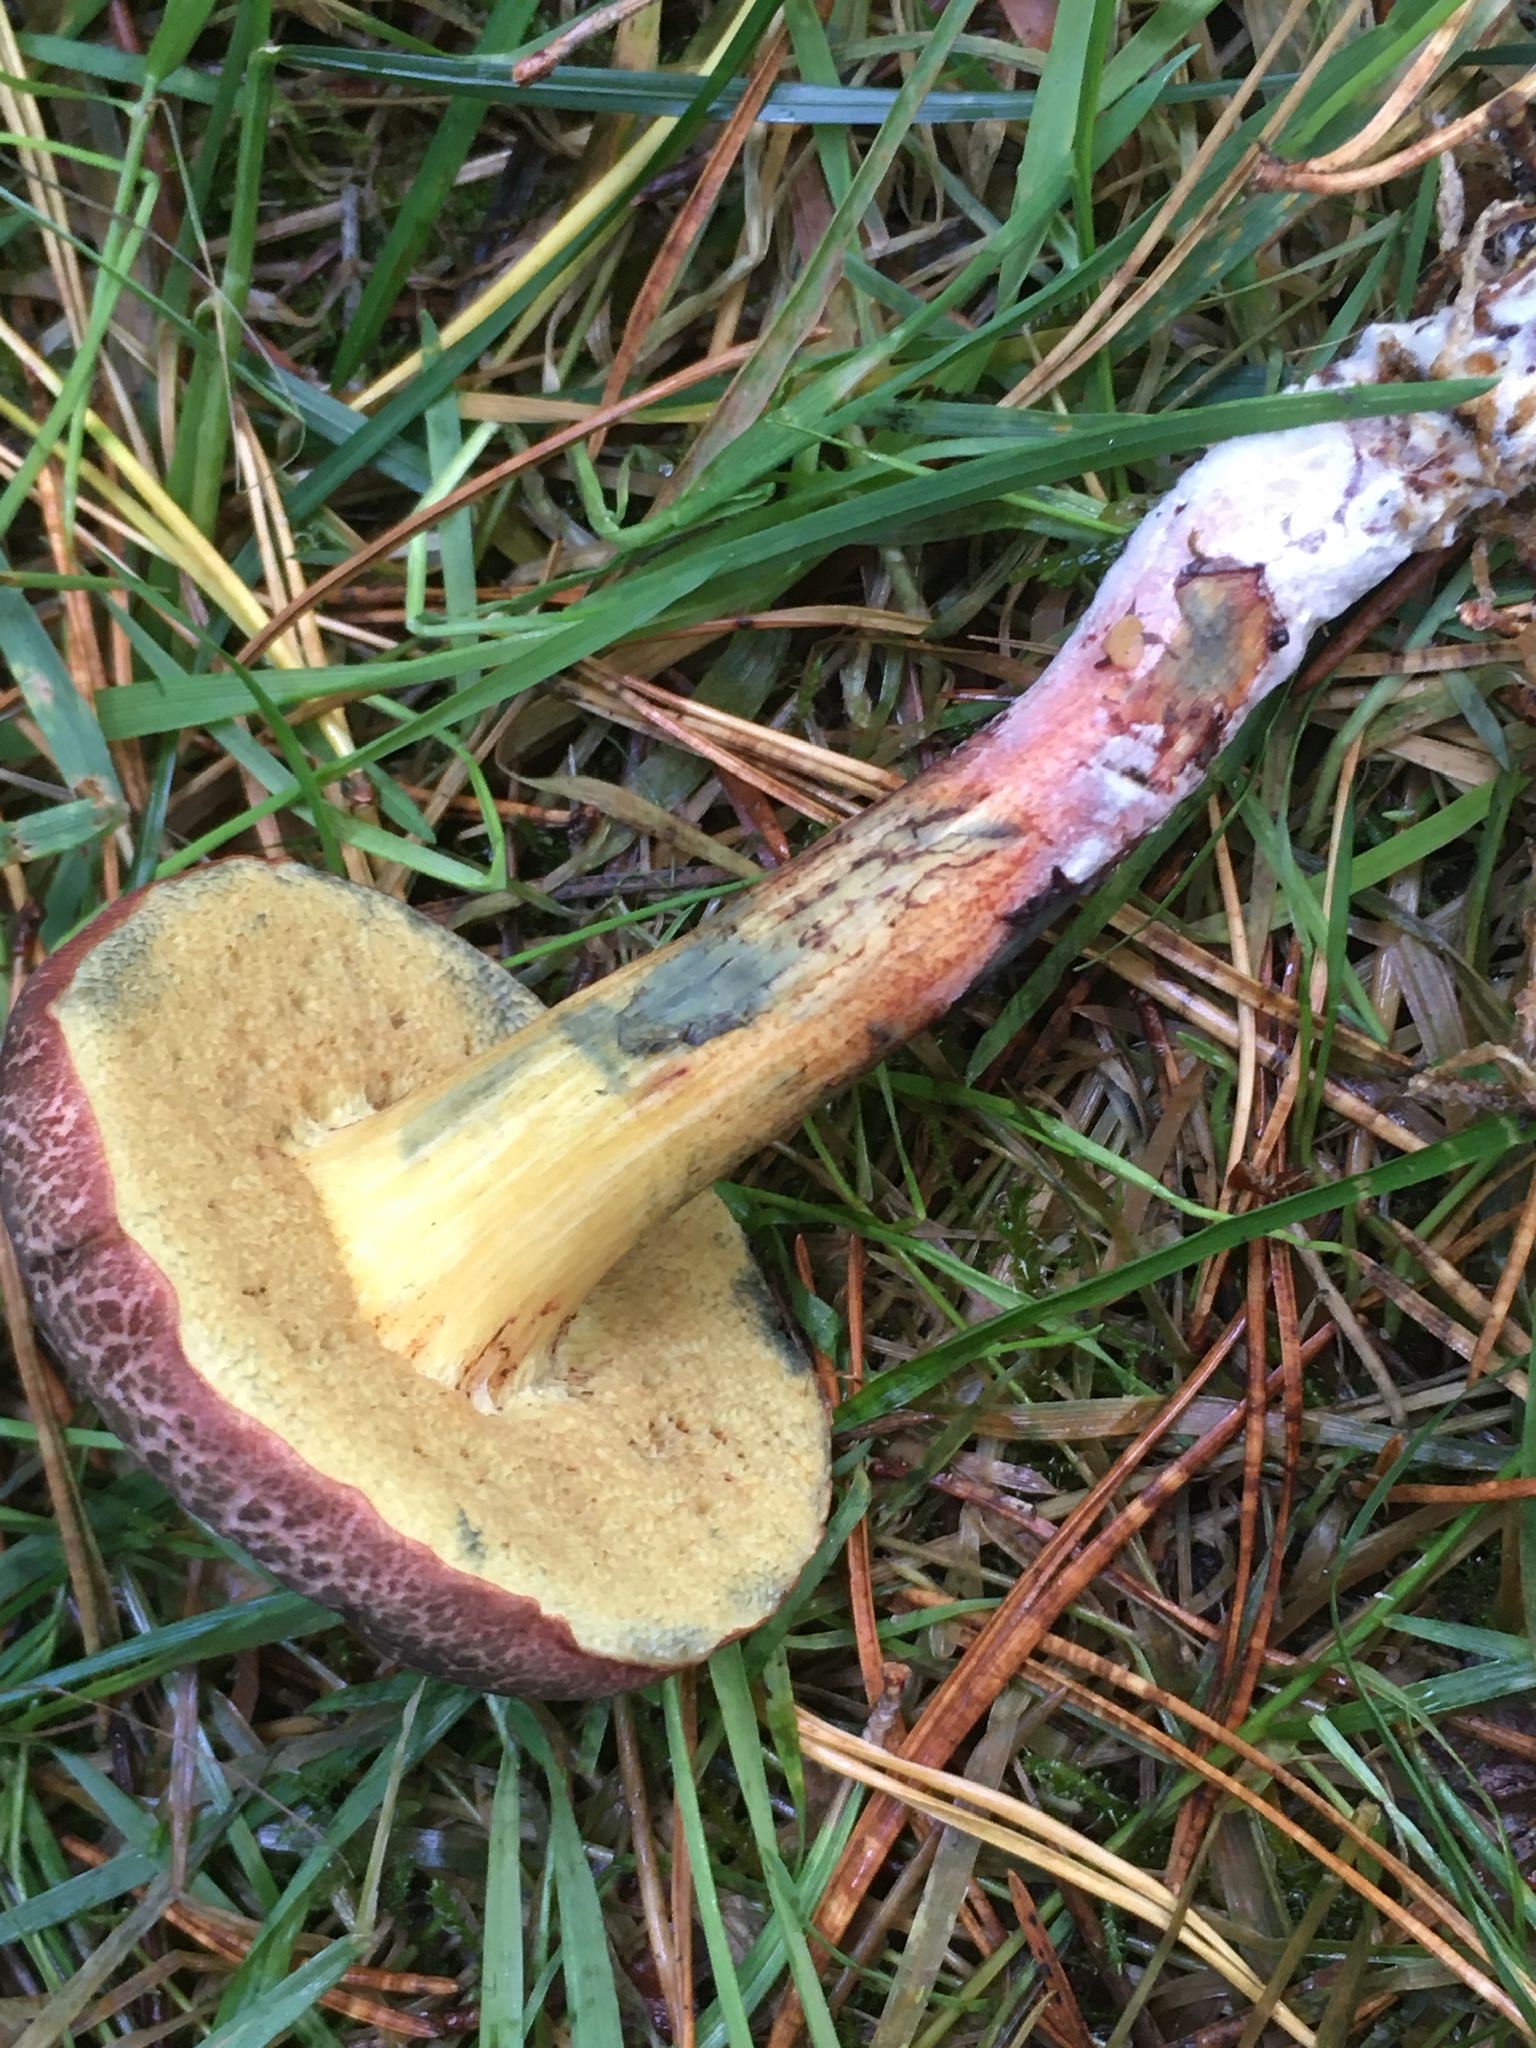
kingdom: Fungi
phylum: Basidiomycota
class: Agaricomycetes
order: Boletales
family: Boletaceae
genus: Xerocomellus
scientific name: Xerocomellus cisalpinus
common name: finsprukken rørhat
